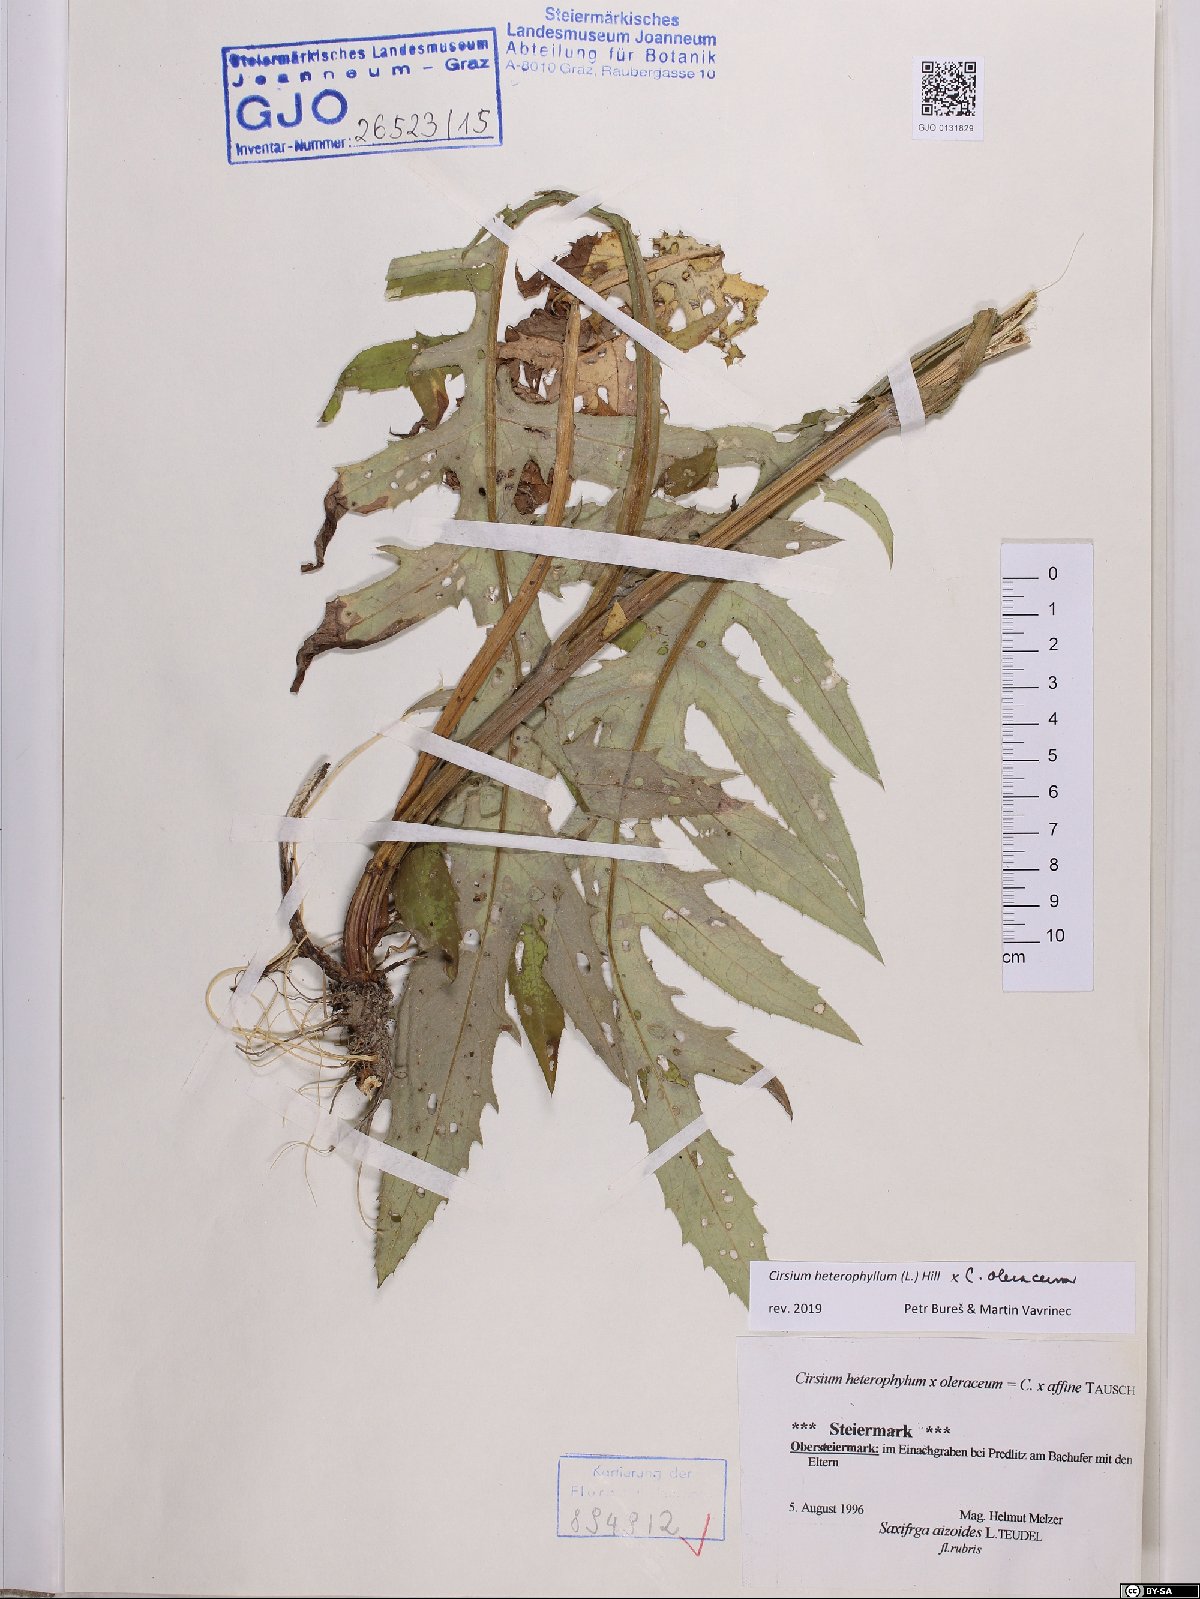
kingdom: Plantae
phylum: Tracheophyta
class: Magnoliopsida
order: Asterales
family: Asteraceae
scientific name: Asteraceae
